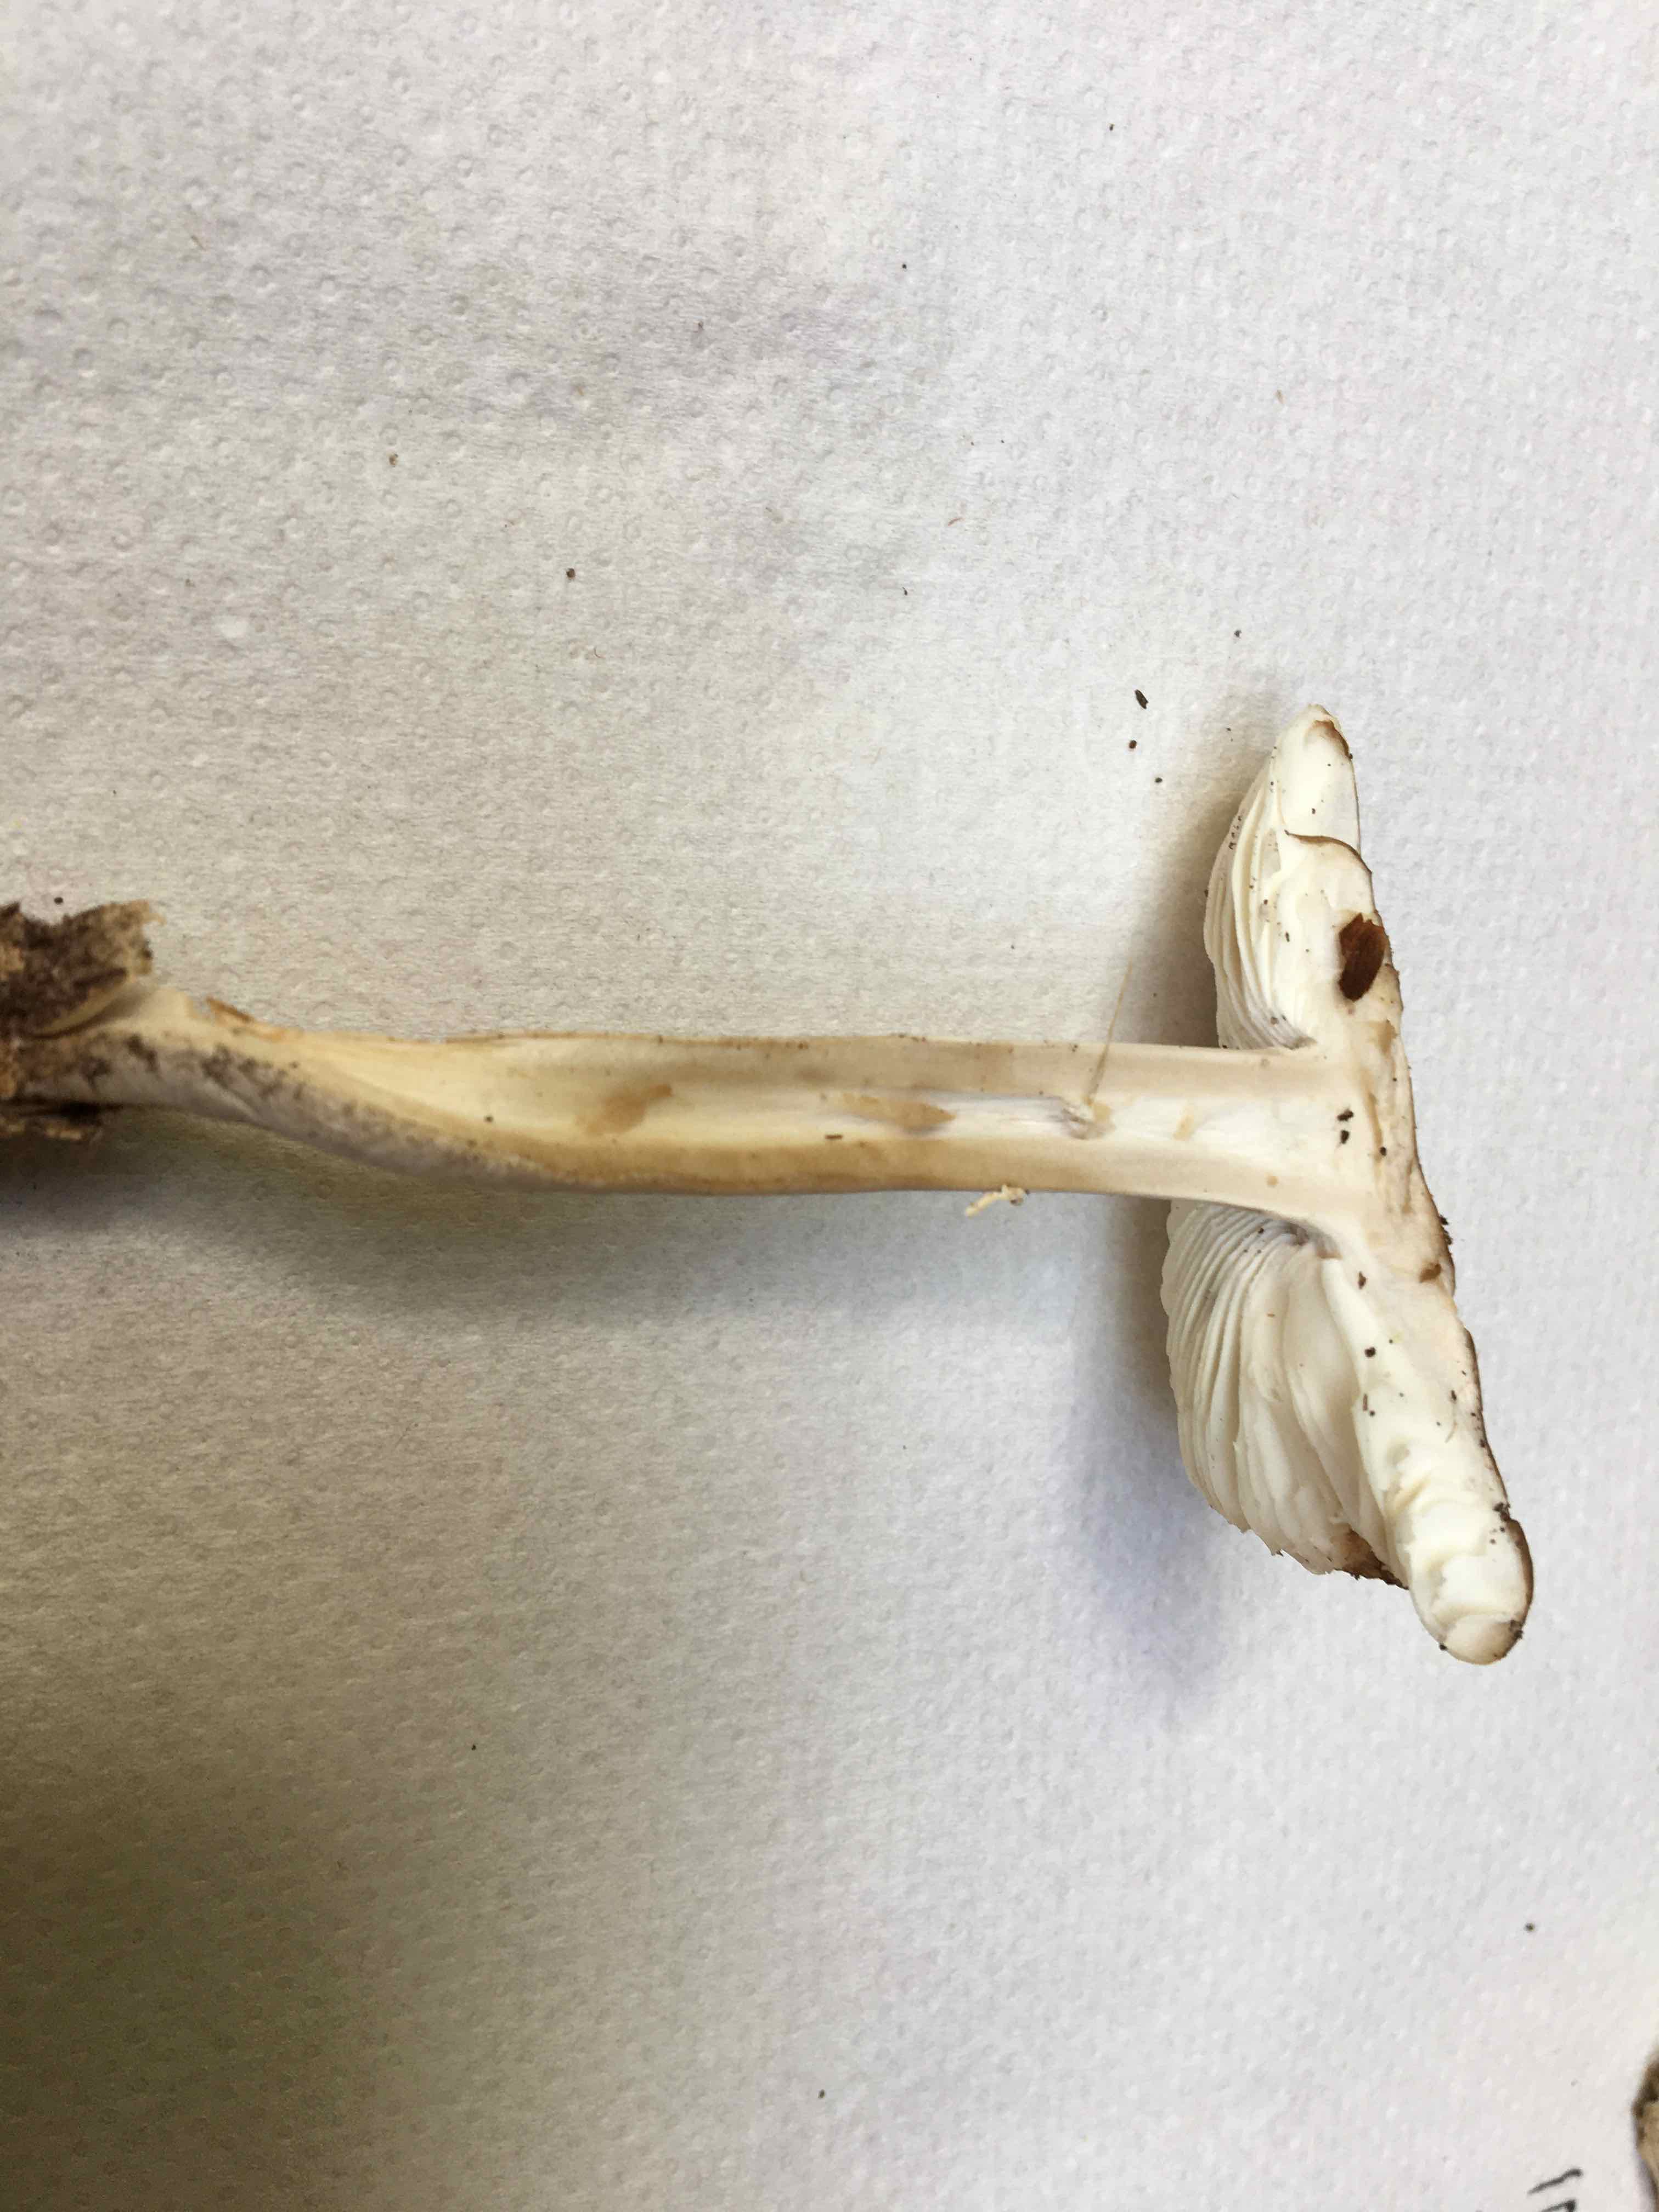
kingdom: Fungi
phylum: Basidiomycota
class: Agaricomycetes
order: Agaricales
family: Amanitaceae
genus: Amanita
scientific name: Amanita pantherina
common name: panter-fluesvamp
